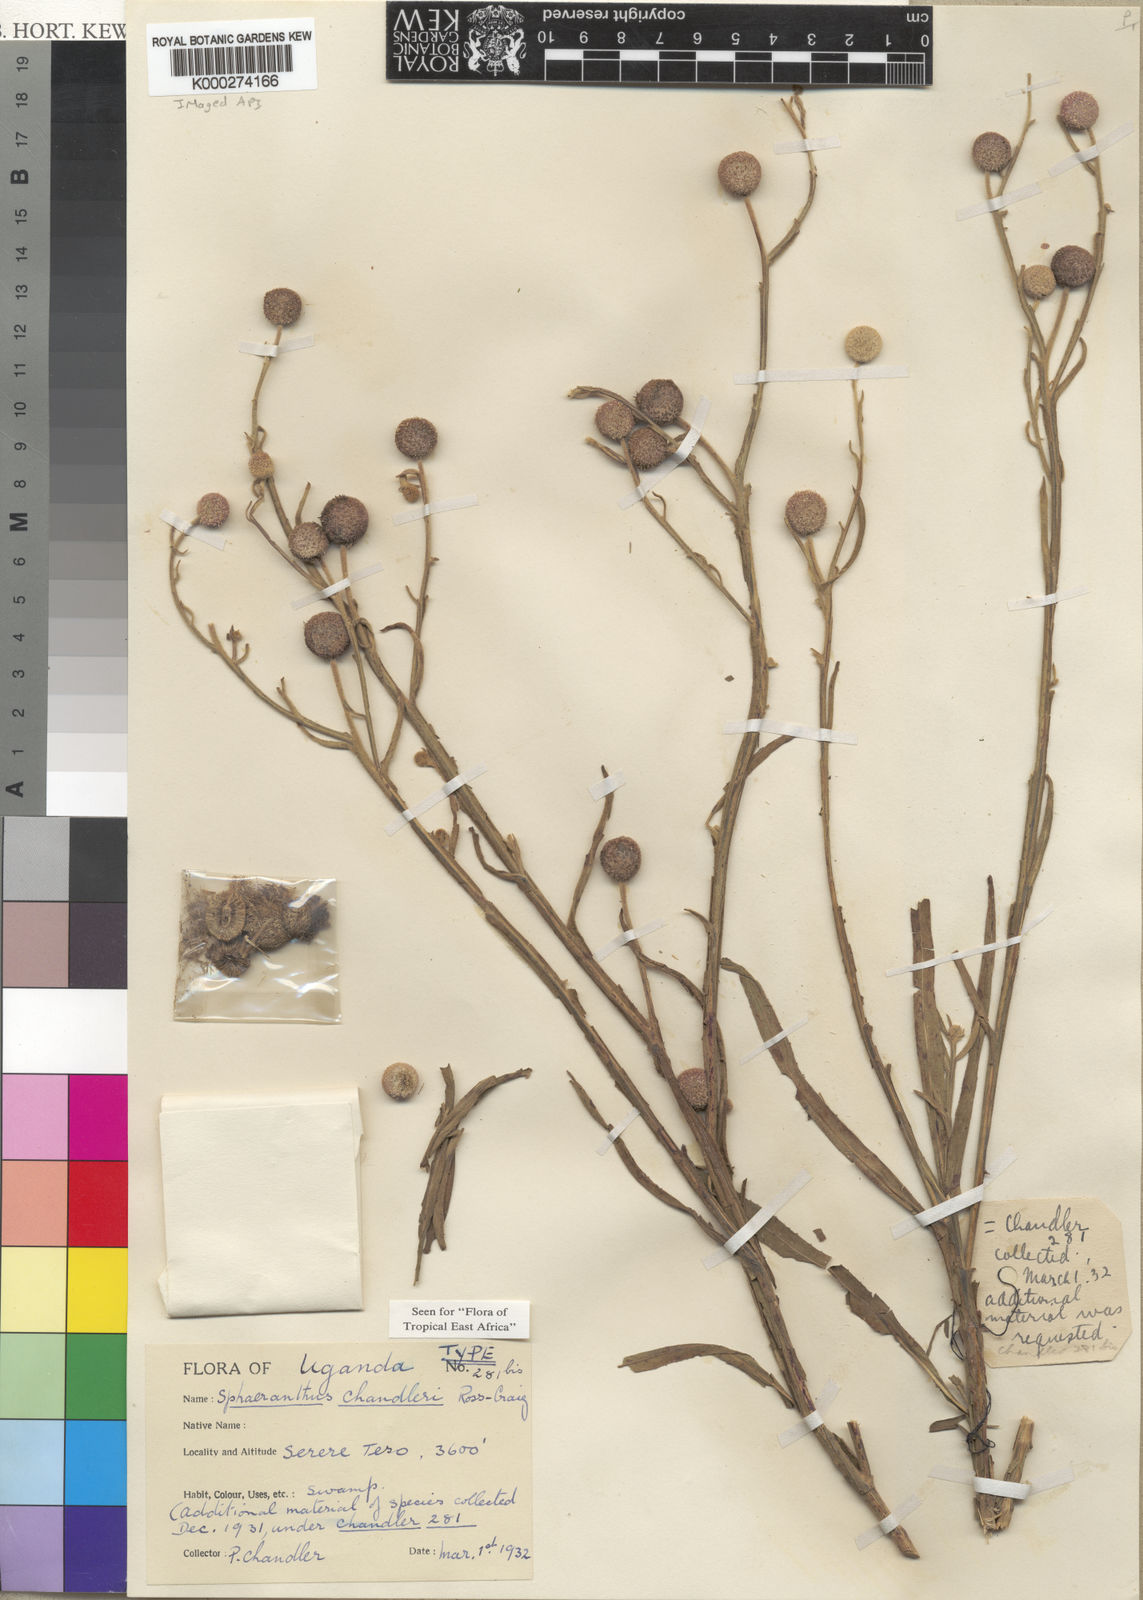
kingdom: Plantae
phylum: Tracheophyta
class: Magnoliopsida
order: Asterales
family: Asteraceae
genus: Sphaeranthus
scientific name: Sphaeranthus chandleri
